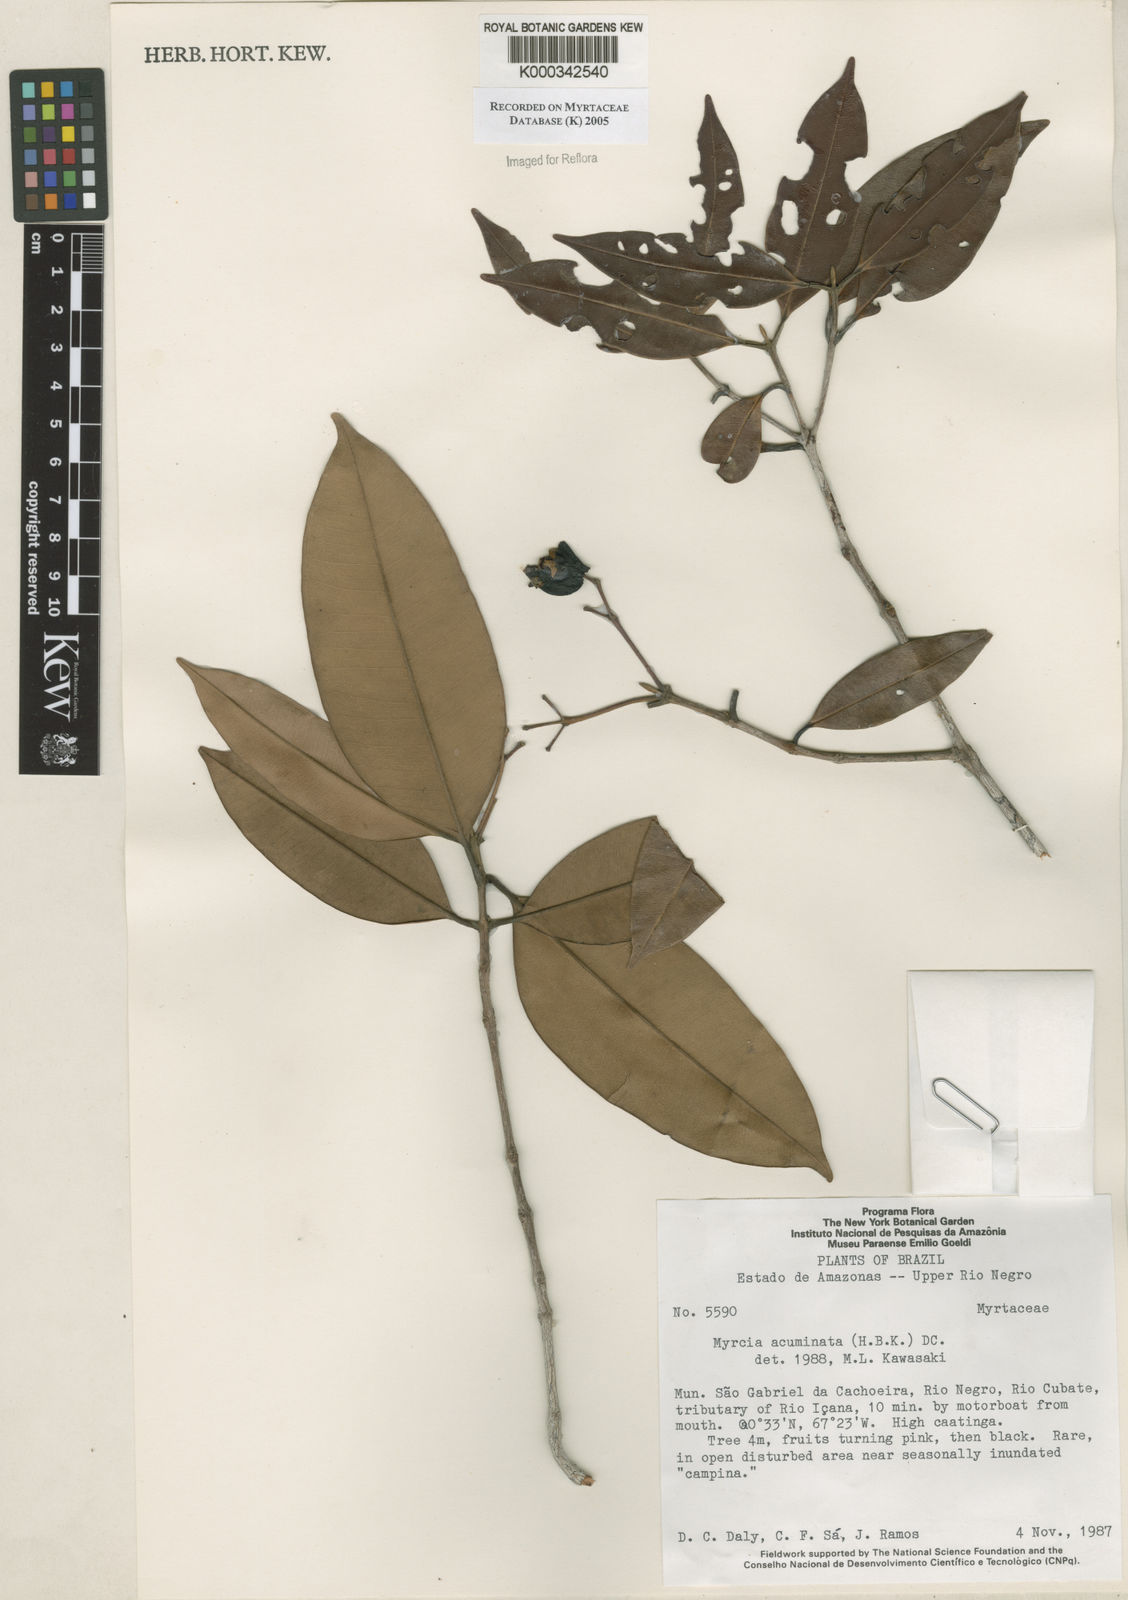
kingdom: Plantae
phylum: Tracheophyta
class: Magnoliopsida
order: Myrtales
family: Myrtaceae
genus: Myrcia
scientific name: Myrcia splendens
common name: Surinam cherry
